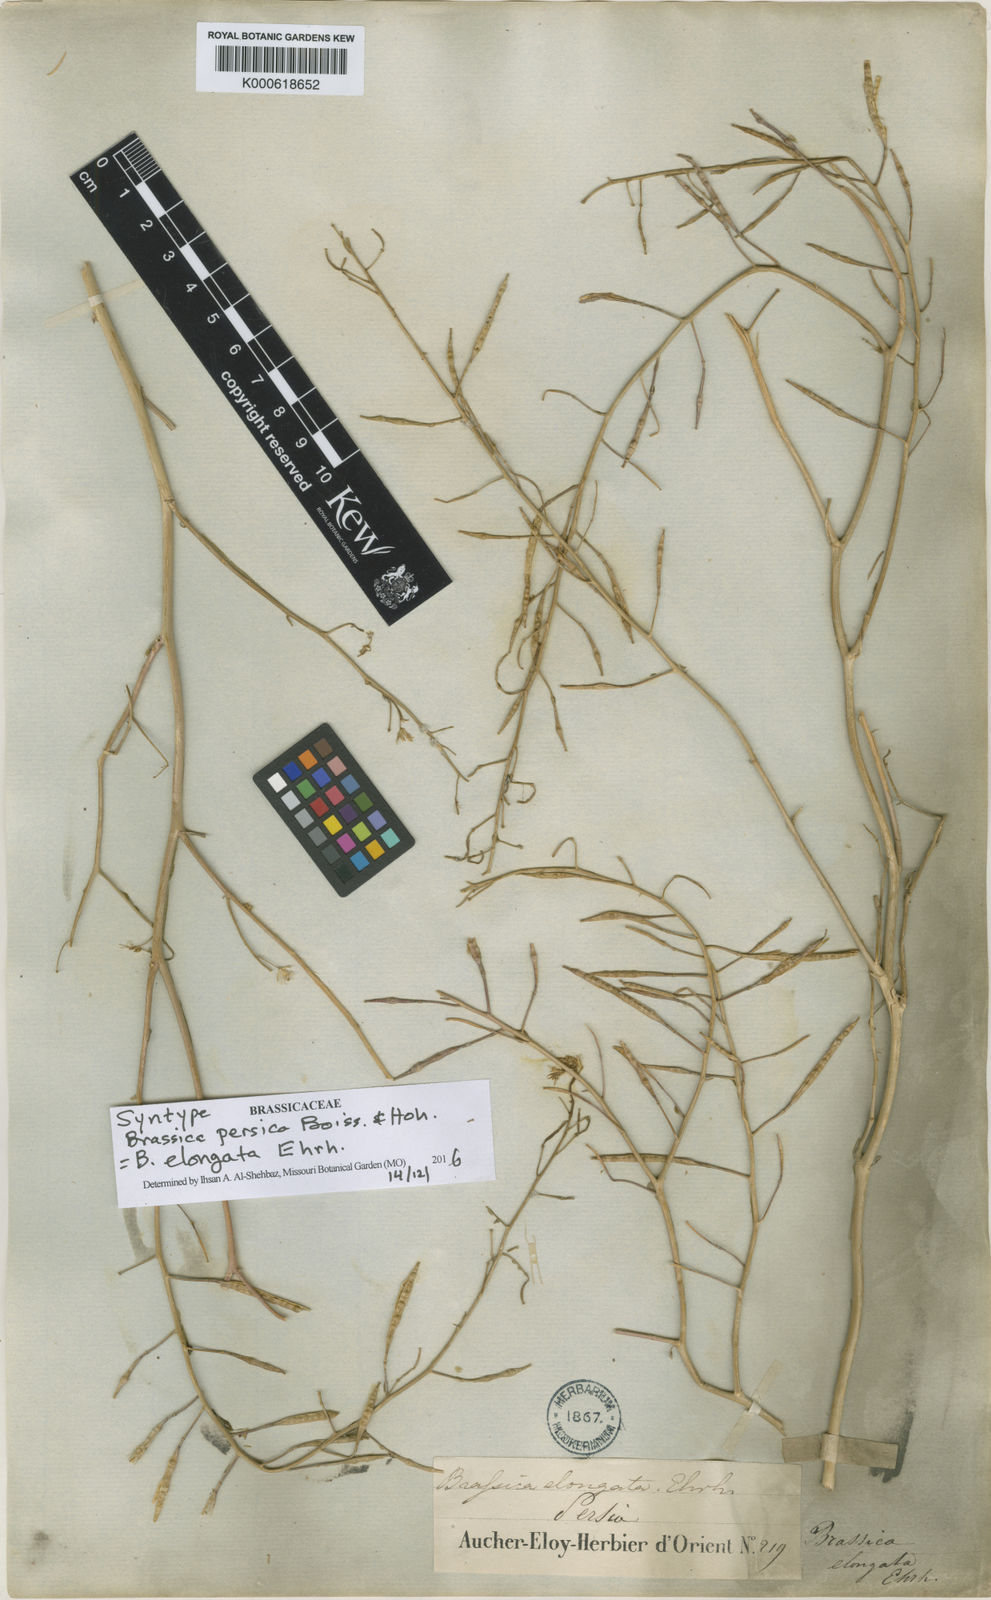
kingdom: Plantae
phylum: Tracheophyta
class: Magnoliopsida
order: Brassicales
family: Brassicaceae
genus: Guenthera
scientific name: Guenthera persica
